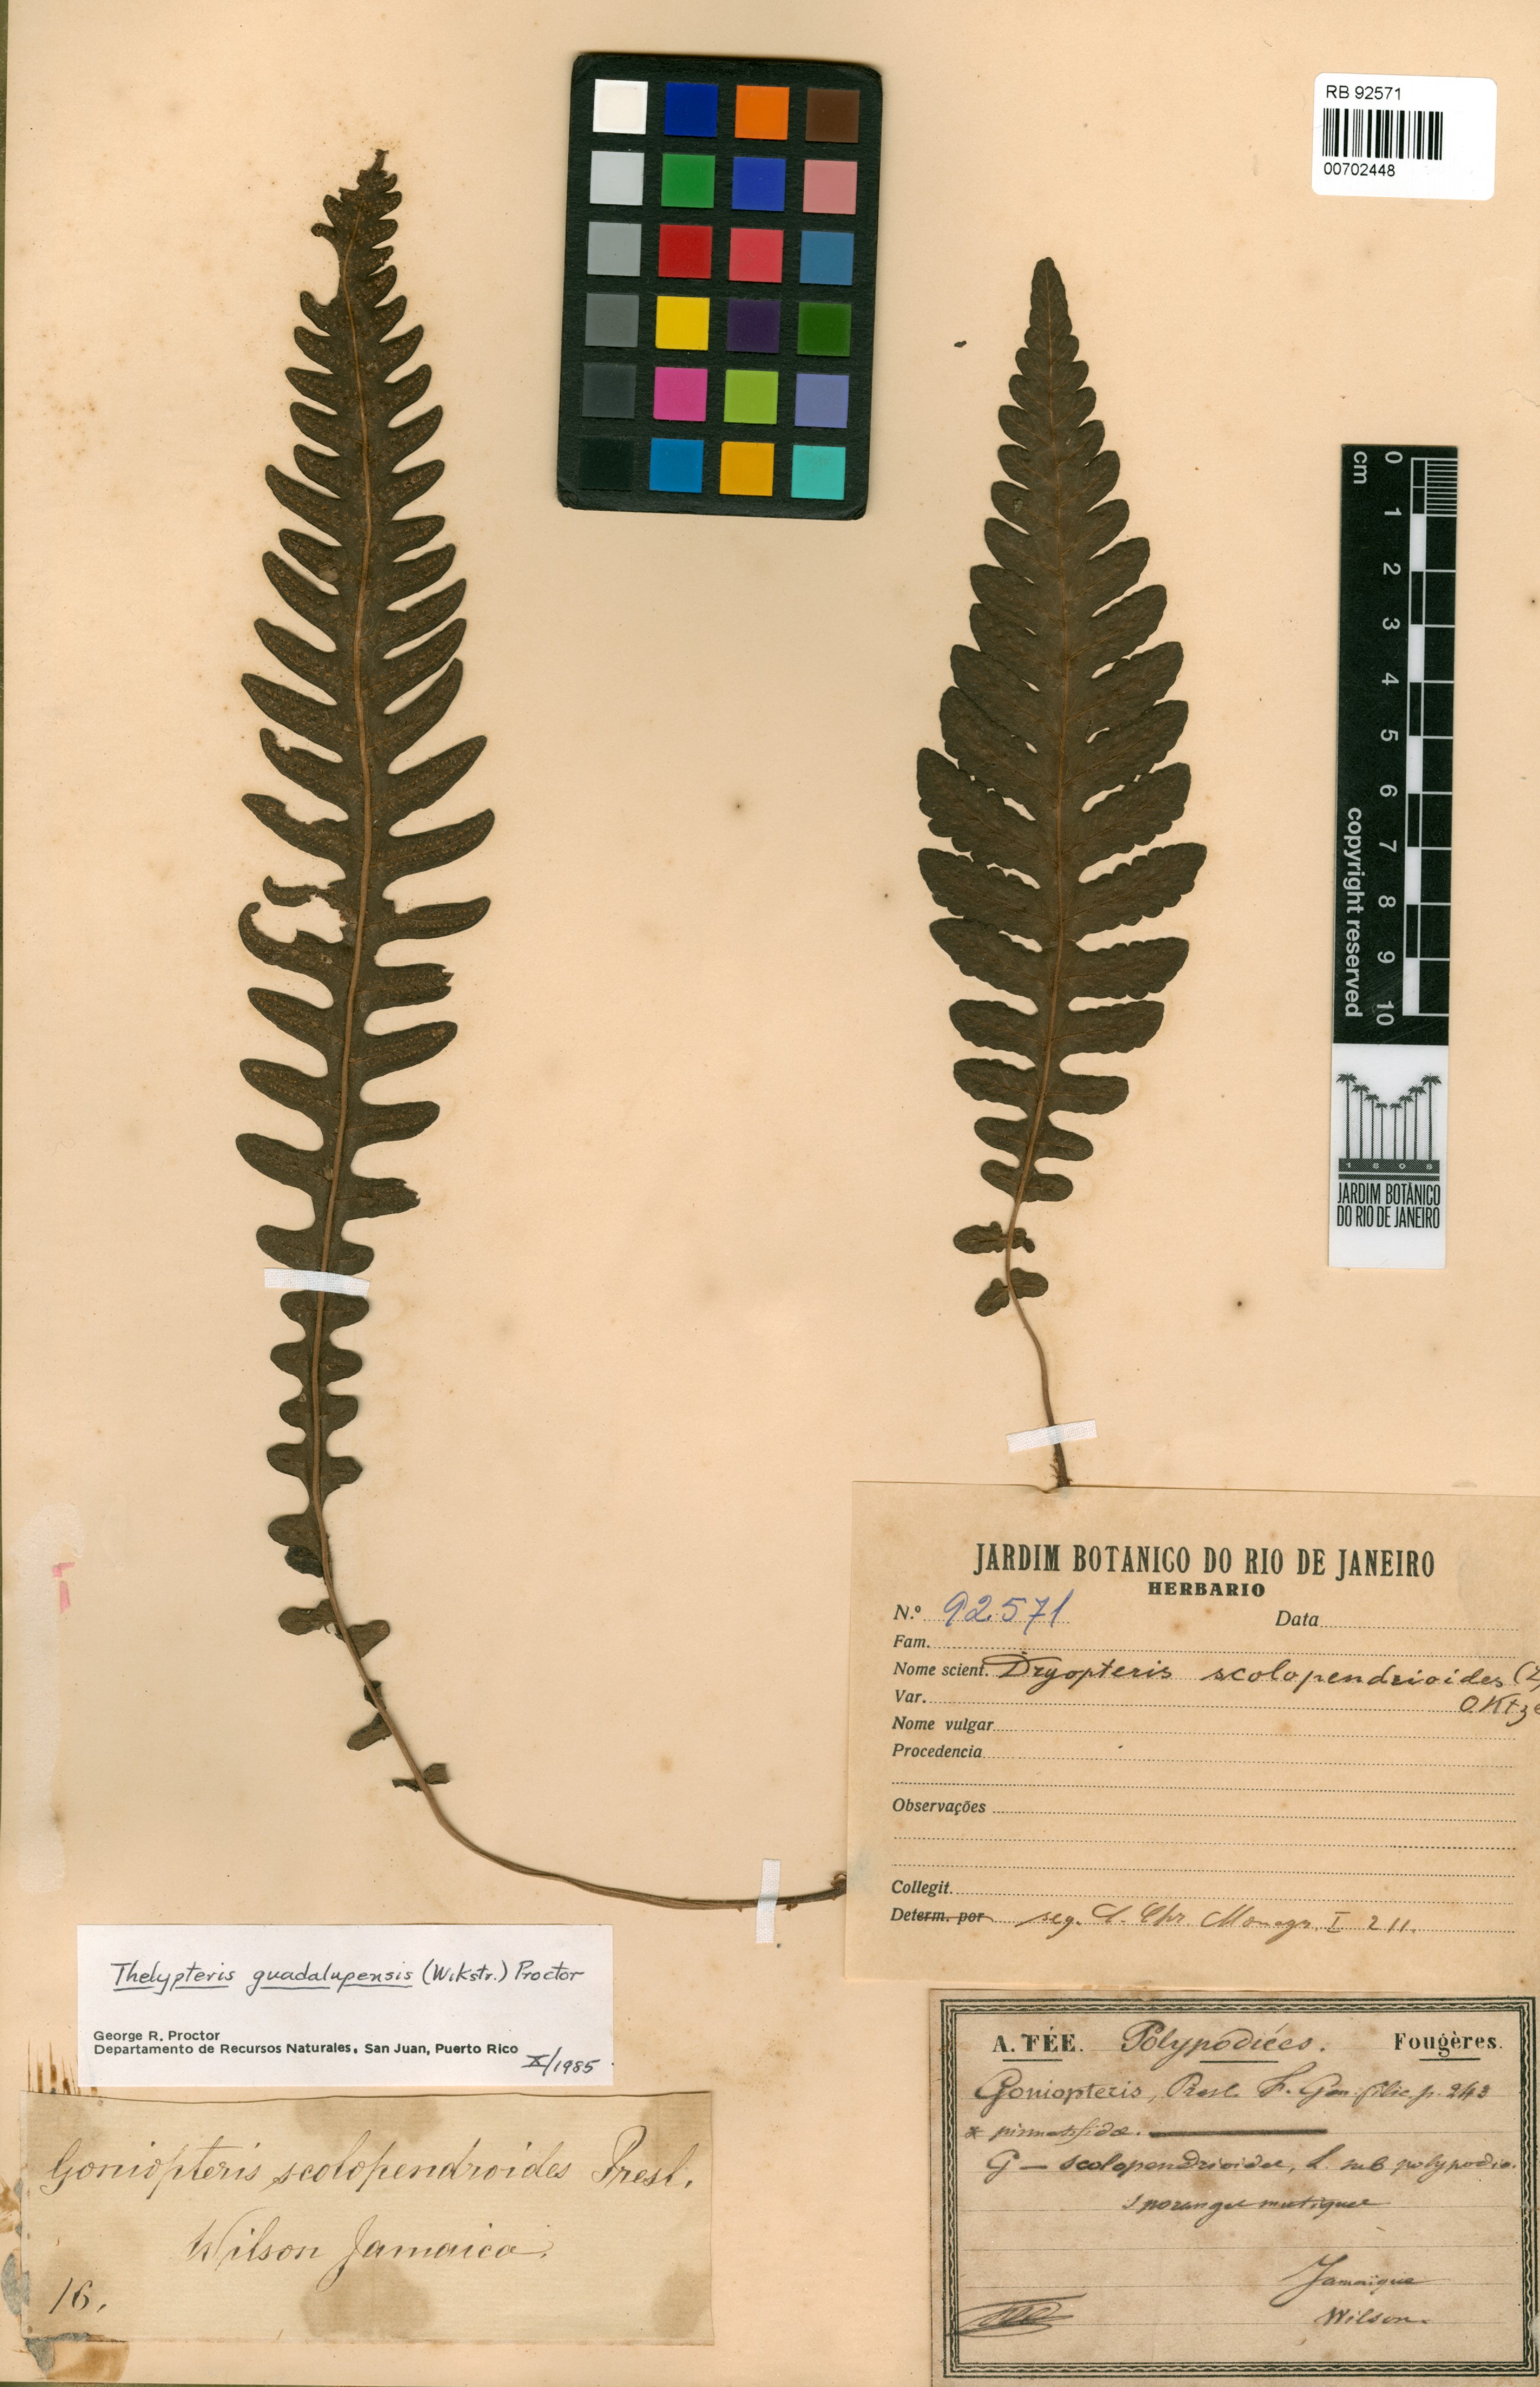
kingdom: Plantae
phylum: Tracheophyta
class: Polypodiopsida
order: Polypodiales
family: Thelypteridaceae
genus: Goniopteris
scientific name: Goniopteris domingensis
